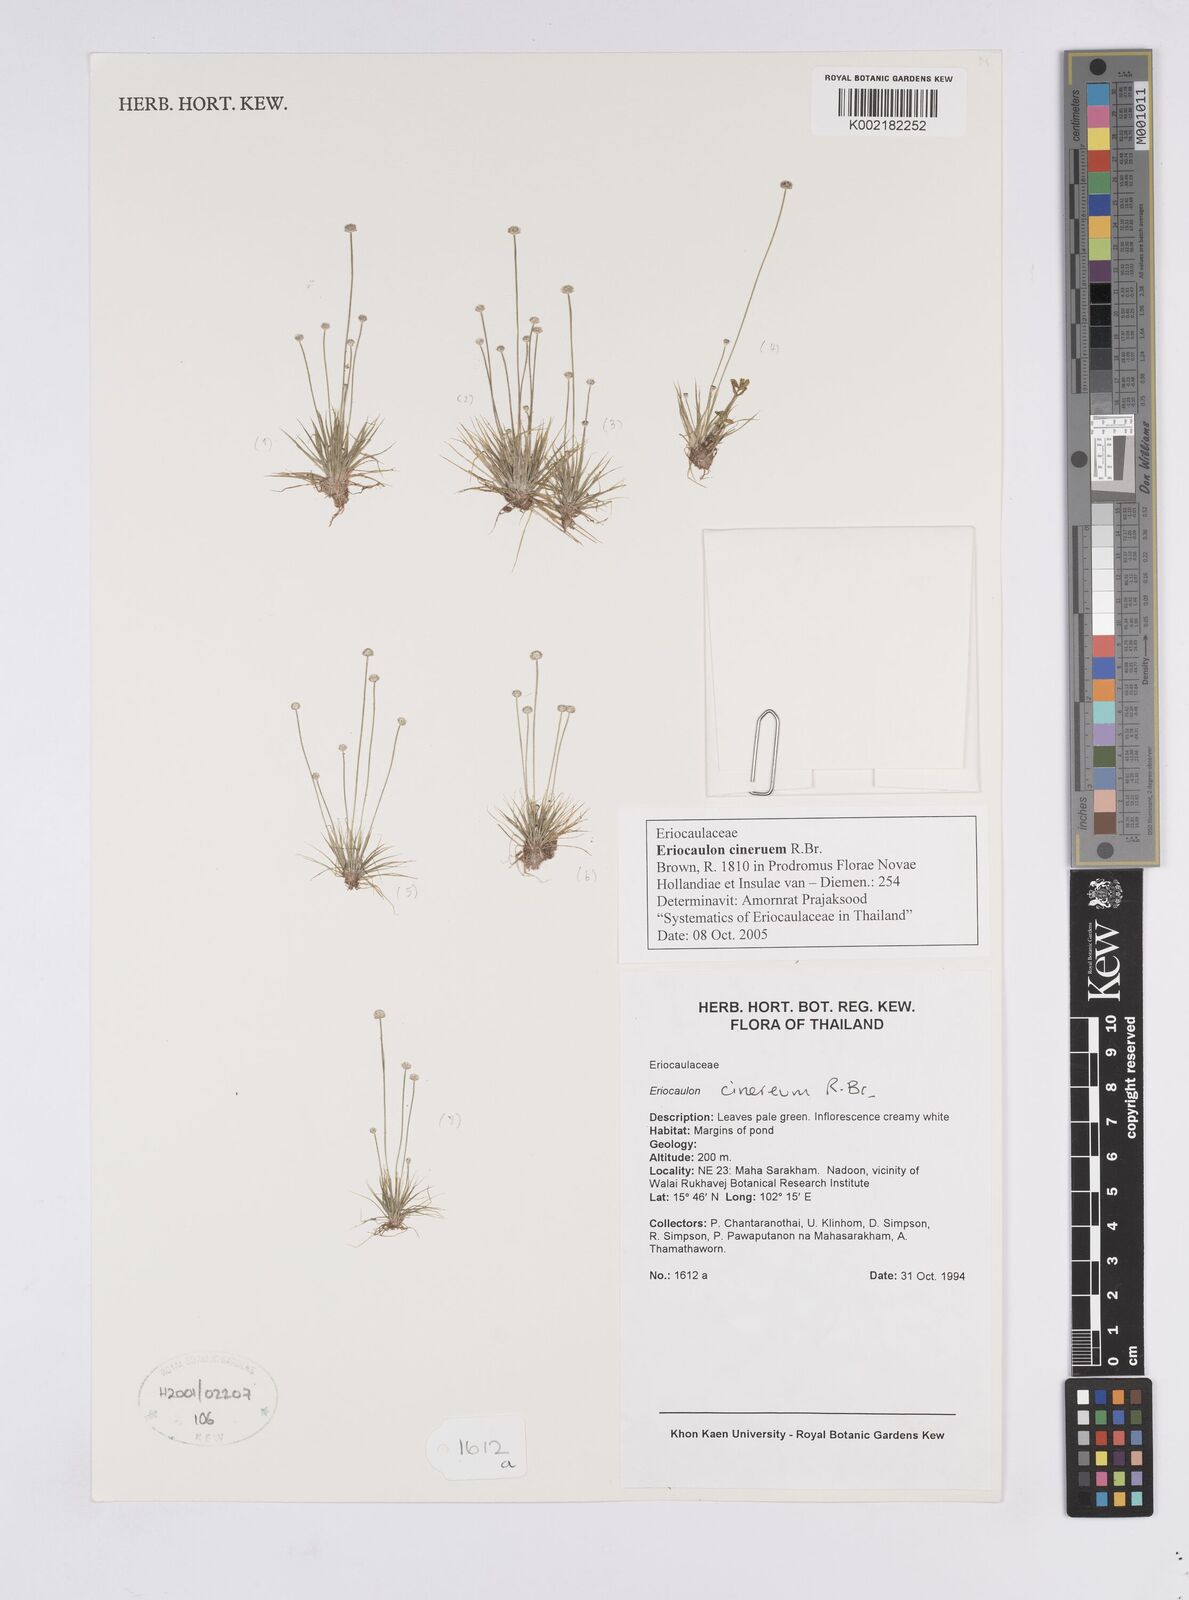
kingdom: Plantae
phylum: Tracheophyta
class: Liliopsida
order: Poales
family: Eriocaulaceae
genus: Eriocaulon
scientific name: Eriocaulon cinereum
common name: Ashy pipewort
